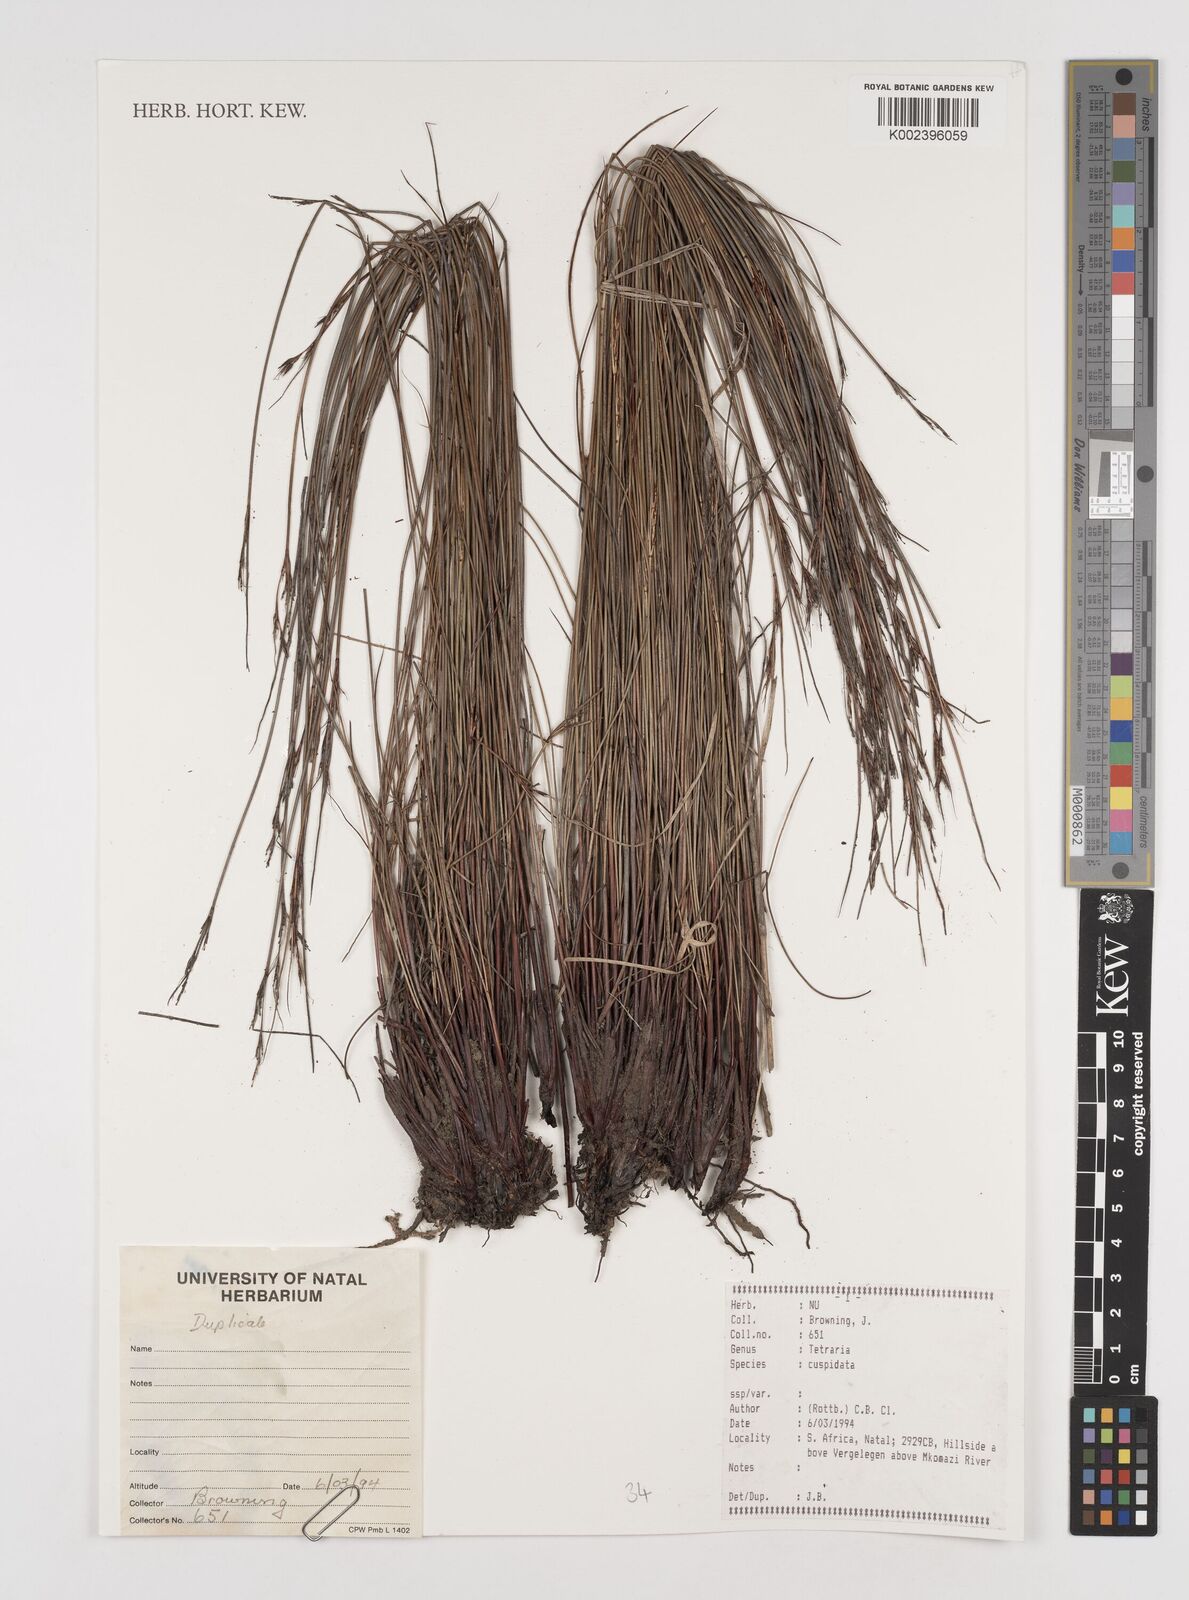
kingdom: Plantae
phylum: Tracheophyta
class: Liliopsida
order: Poales
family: Cyperaceae
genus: Schoenus
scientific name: Schoenus cuspidatus
